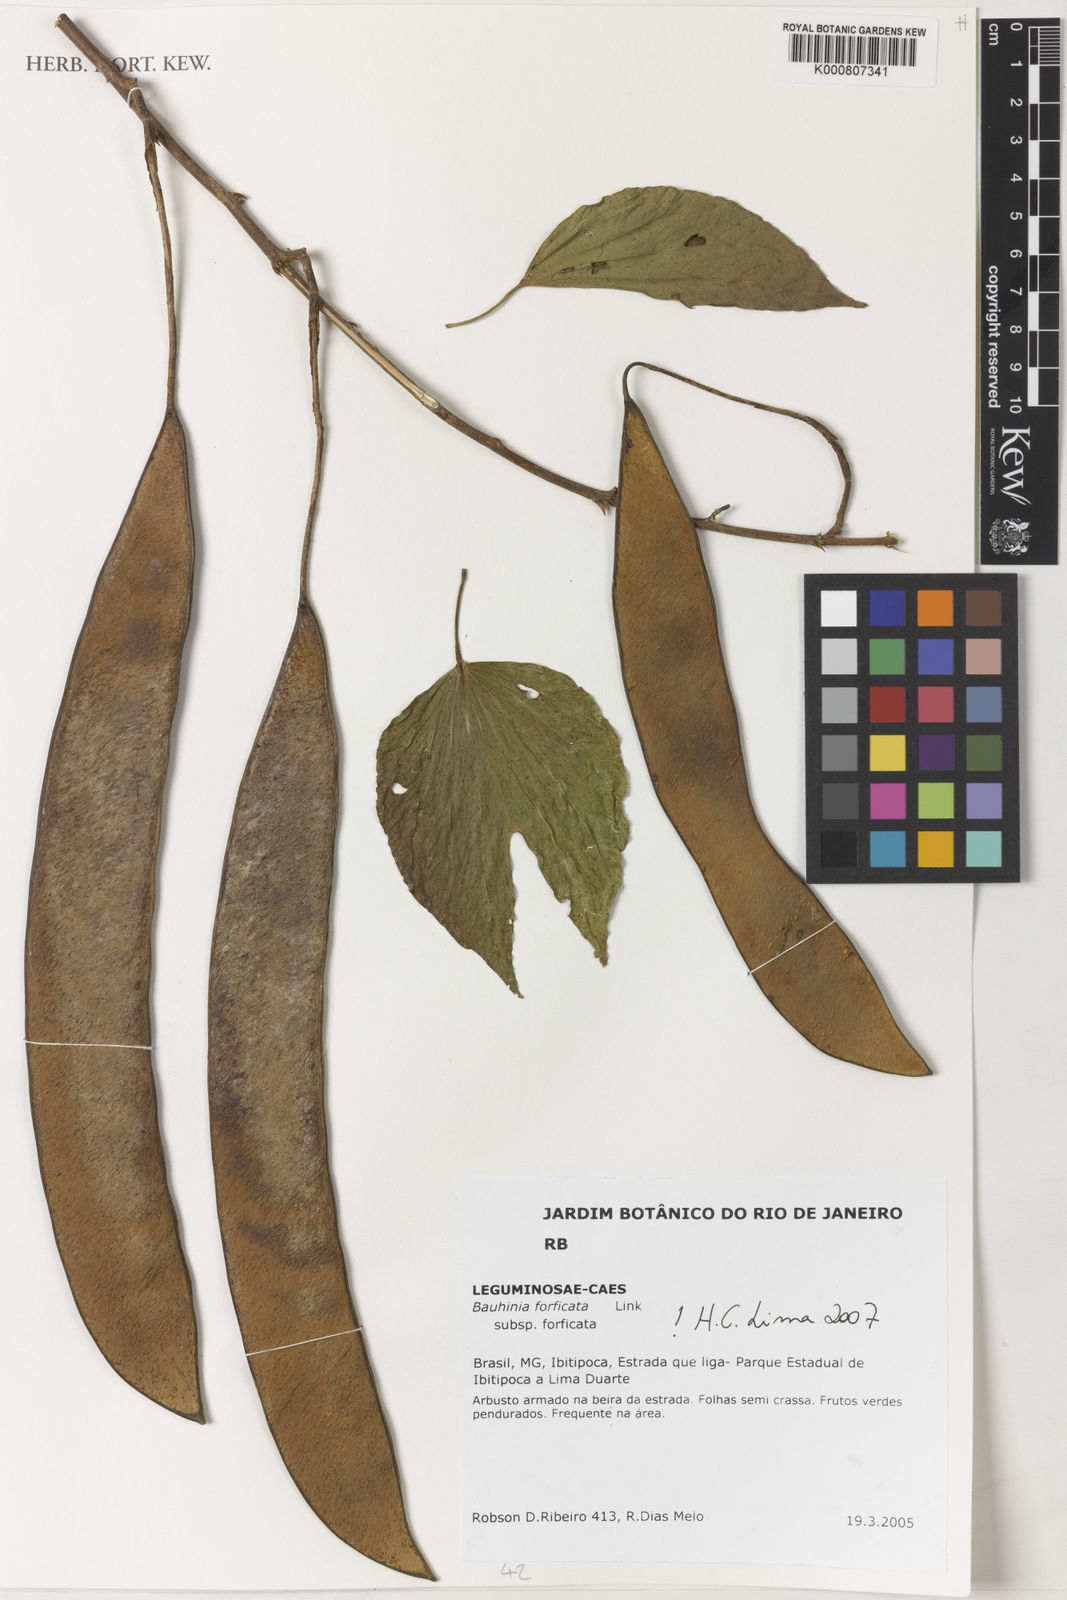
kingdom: Plantae
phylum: Tracheophyta
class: Magnoliopsida
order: Fabales
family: Fabaceae
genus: Bauhinia
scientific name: Bauhinia forficata
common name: Orchid tree
